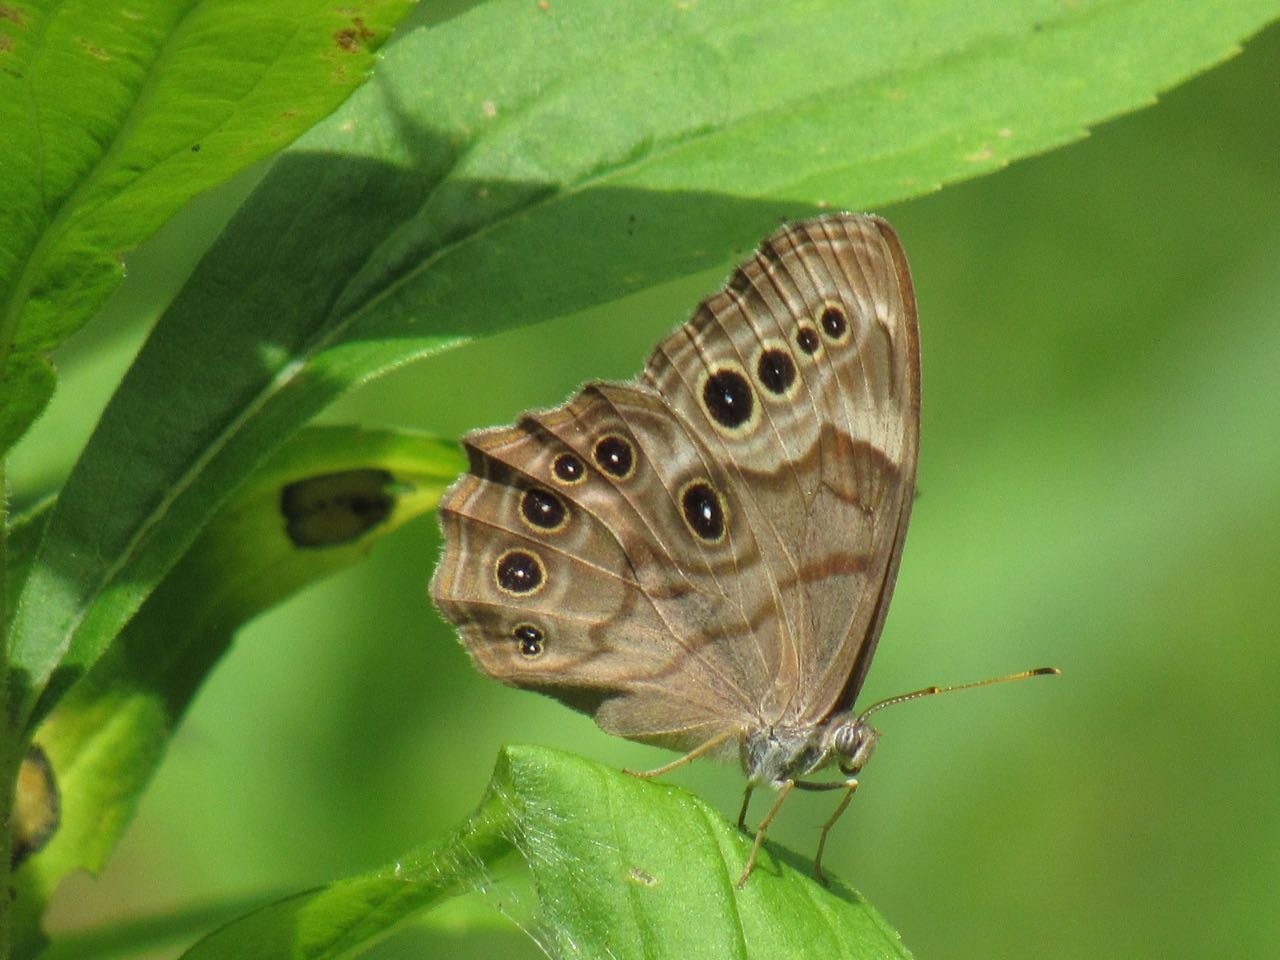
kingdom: Animalia
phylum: Arthropoda
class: Insecta
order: Lepidoptera
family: Nymphalidae
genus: Lethe
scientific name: Lethe anthedon
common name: Northern Pearly-Eye
